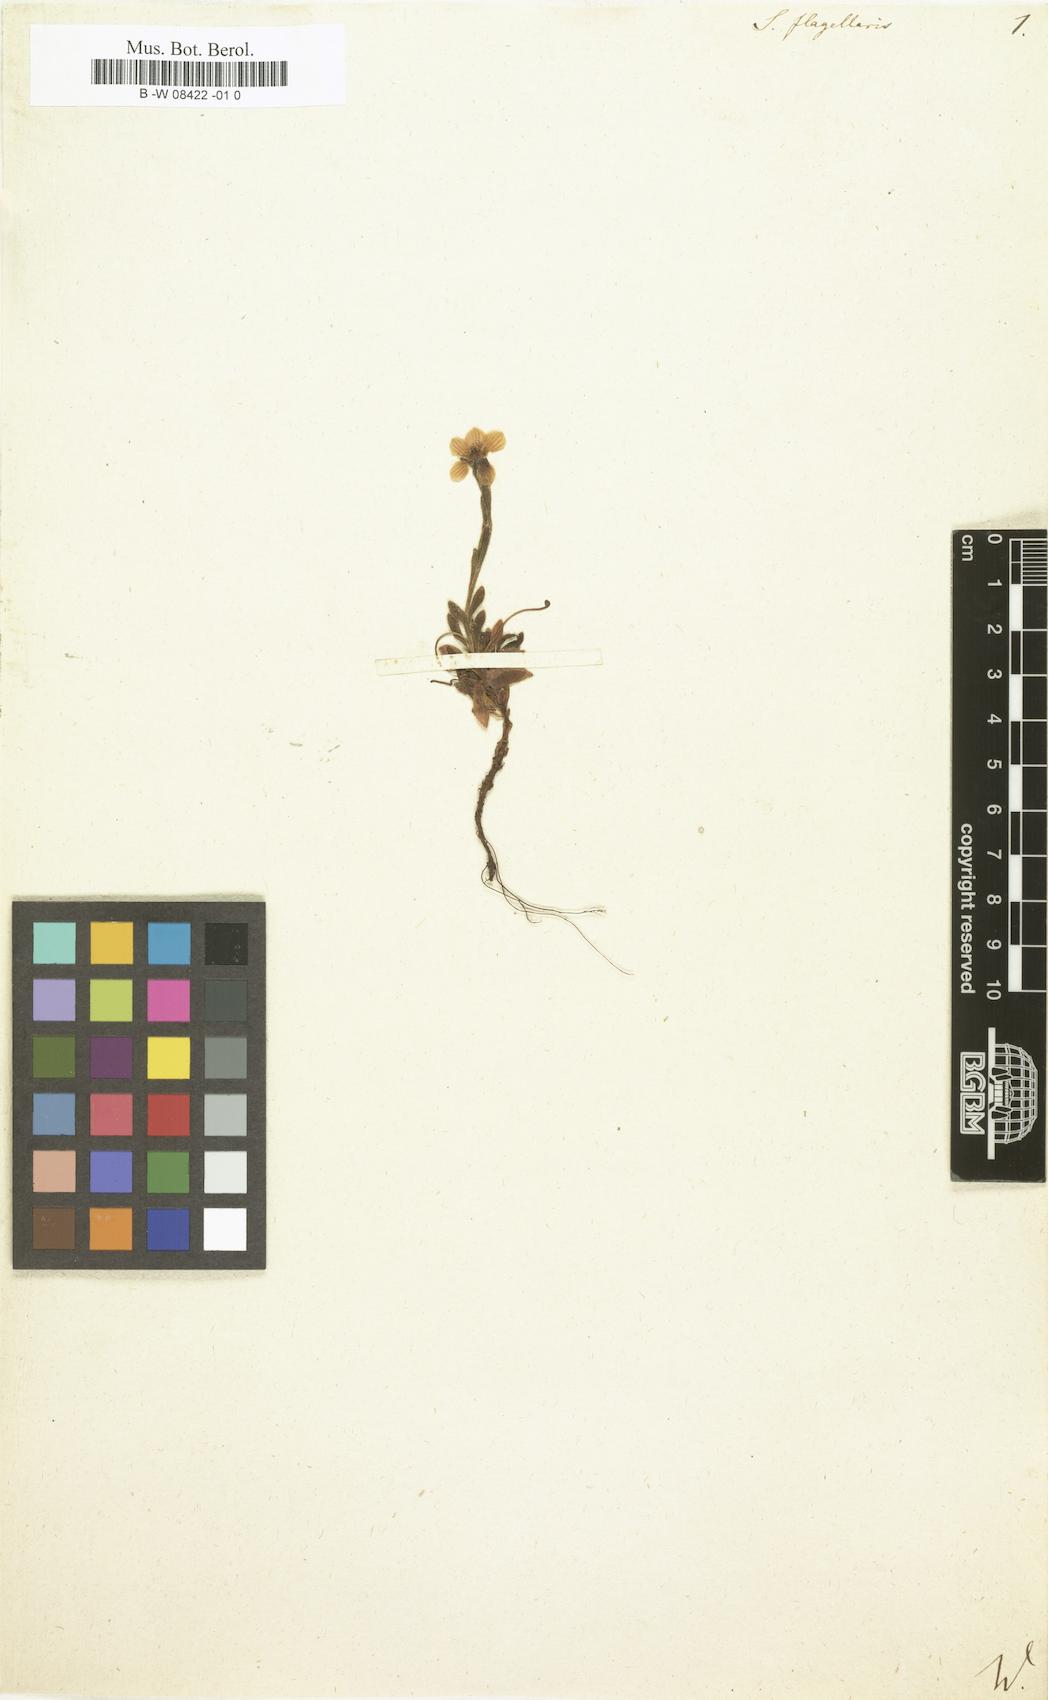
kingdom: Plantae
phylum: Tracheophyta
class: Magnoliopsida
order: Saxifragales
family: Saxifragaceae
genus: Saxifraga
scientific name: Saxifraga flagellaris
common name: Spider saxifrage
